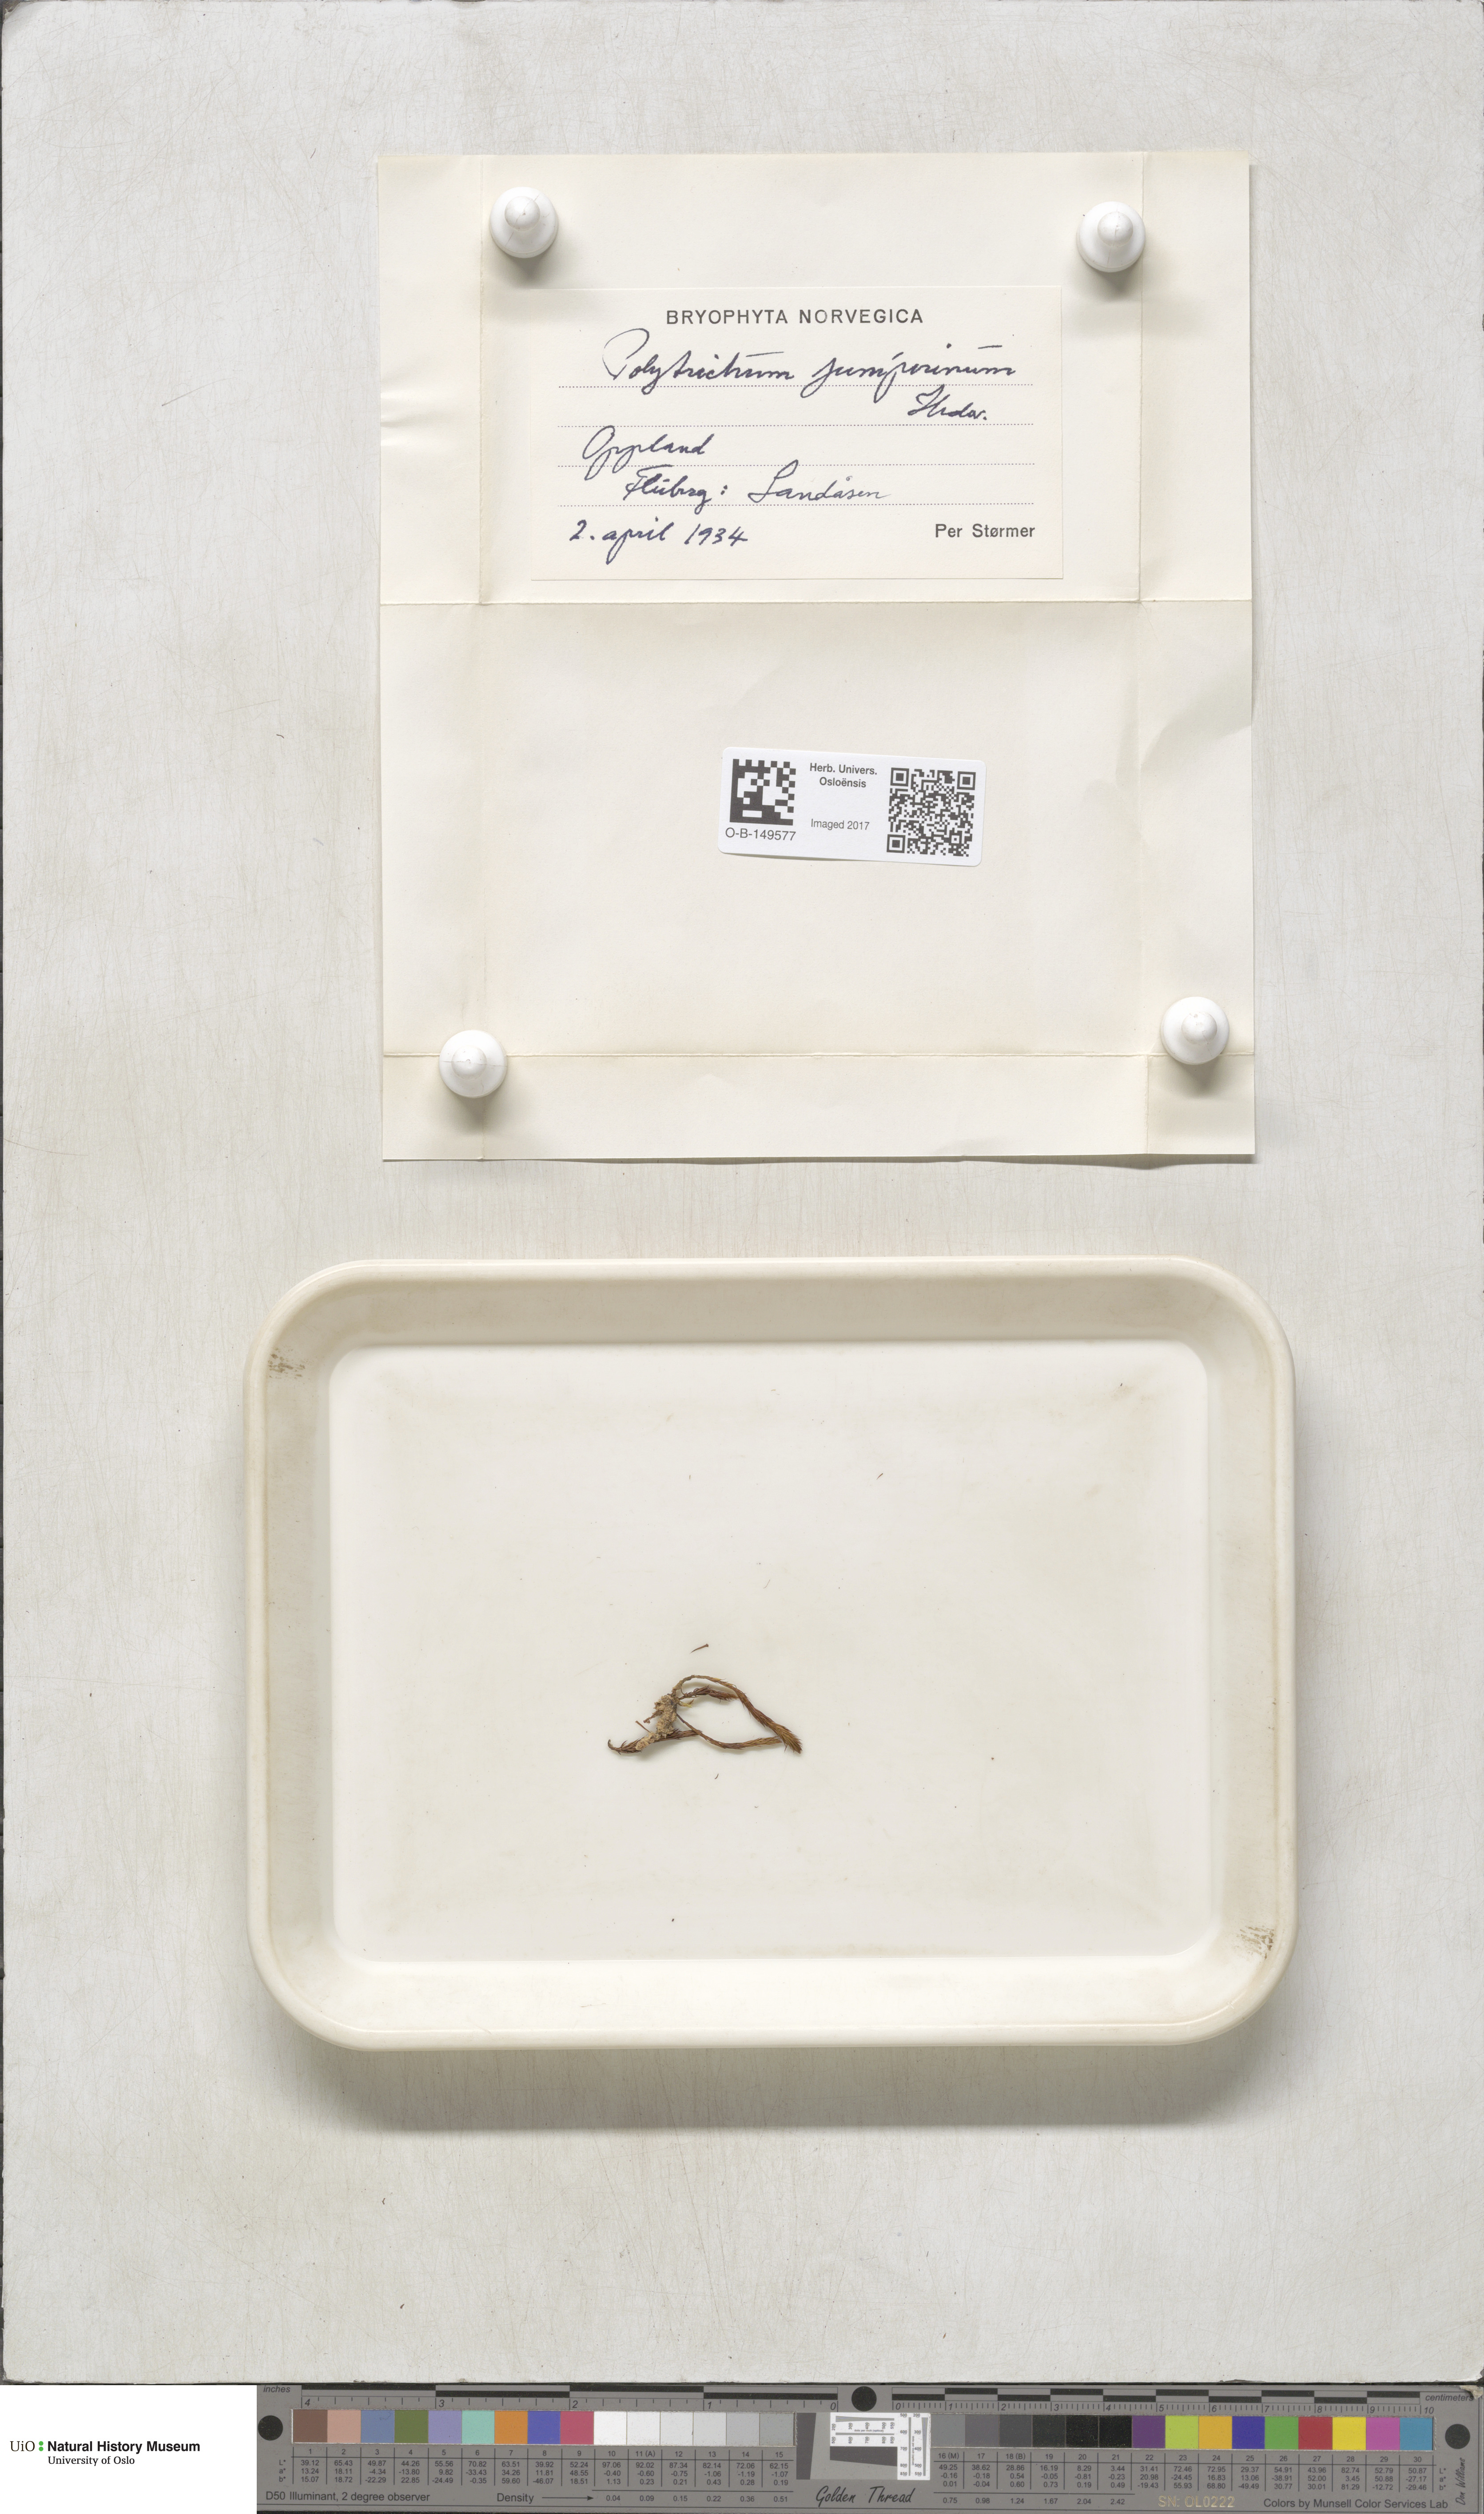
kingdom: Plantae
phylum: Bryophyta
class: Polytrichopsida
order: Polytrichales
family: Polytrichaceae
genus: Polytrichum
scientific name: Polytrichum juniperinum
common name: Juniper haircap moss
